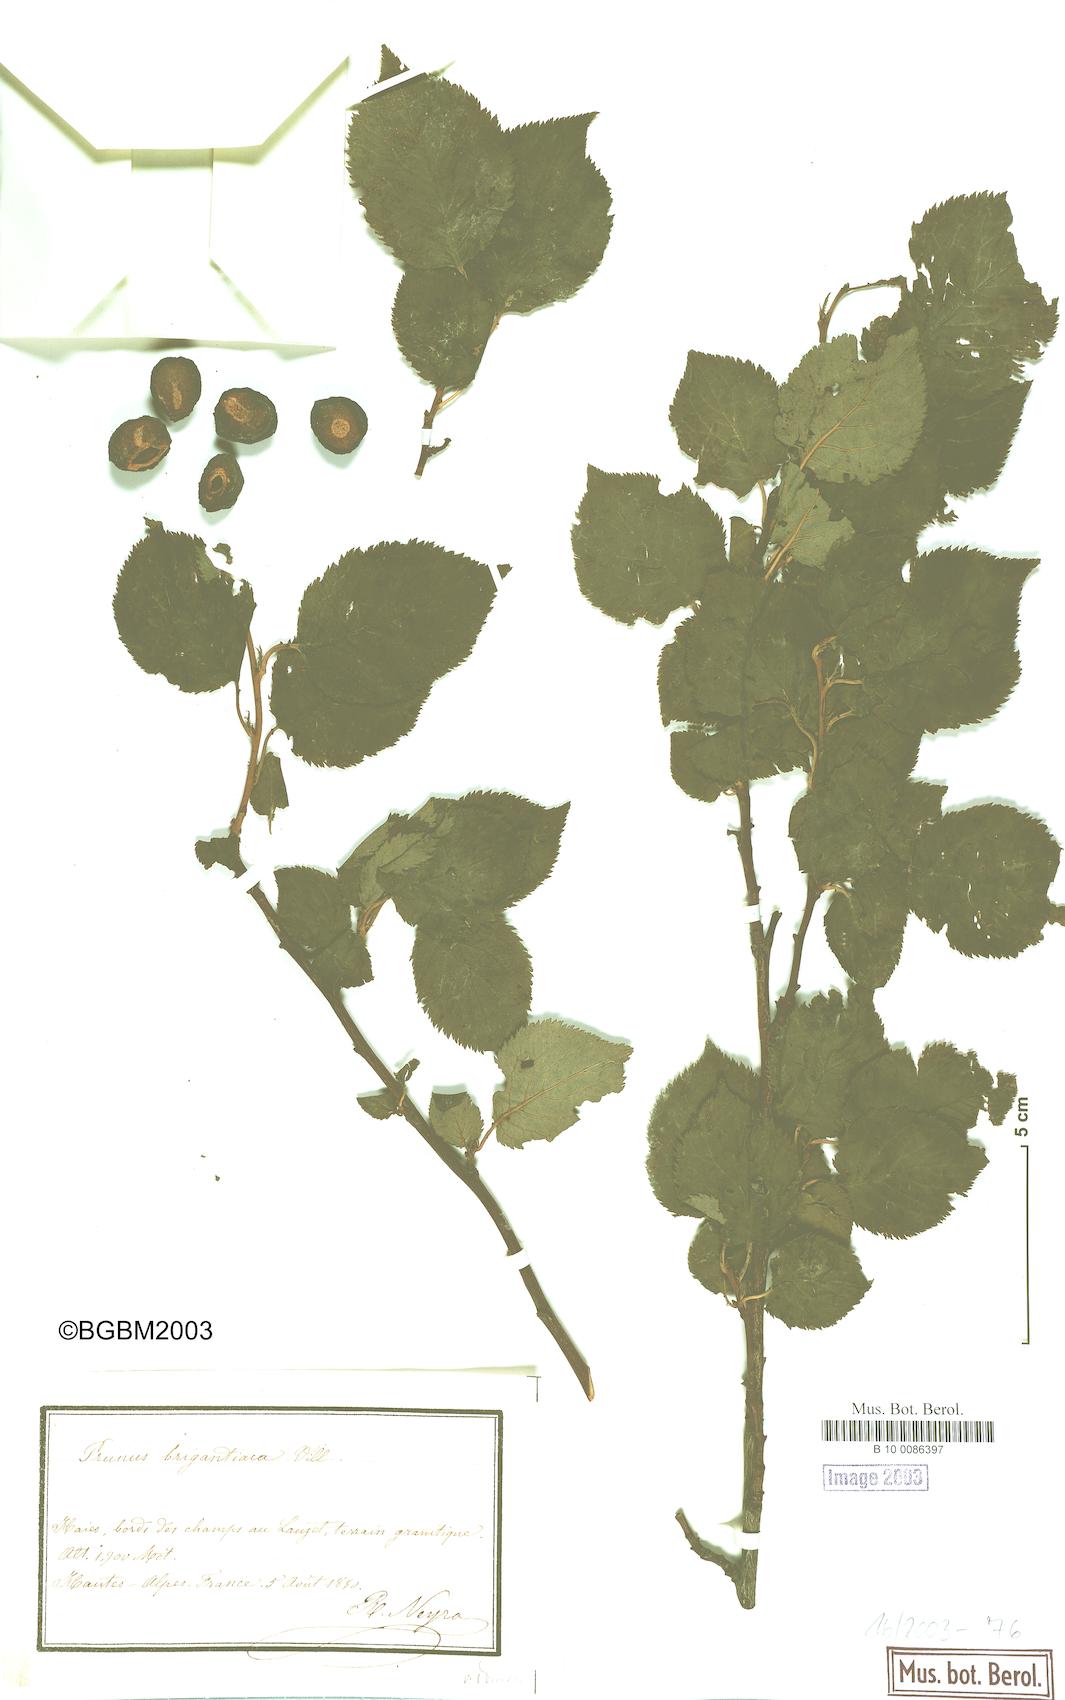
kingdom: Plantae
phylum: Tracheophyta
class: Magnoliopsida
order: Rosales
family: Rosaceae
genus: Prunus
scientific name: Prunus brigantina
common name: Briançon apricot
